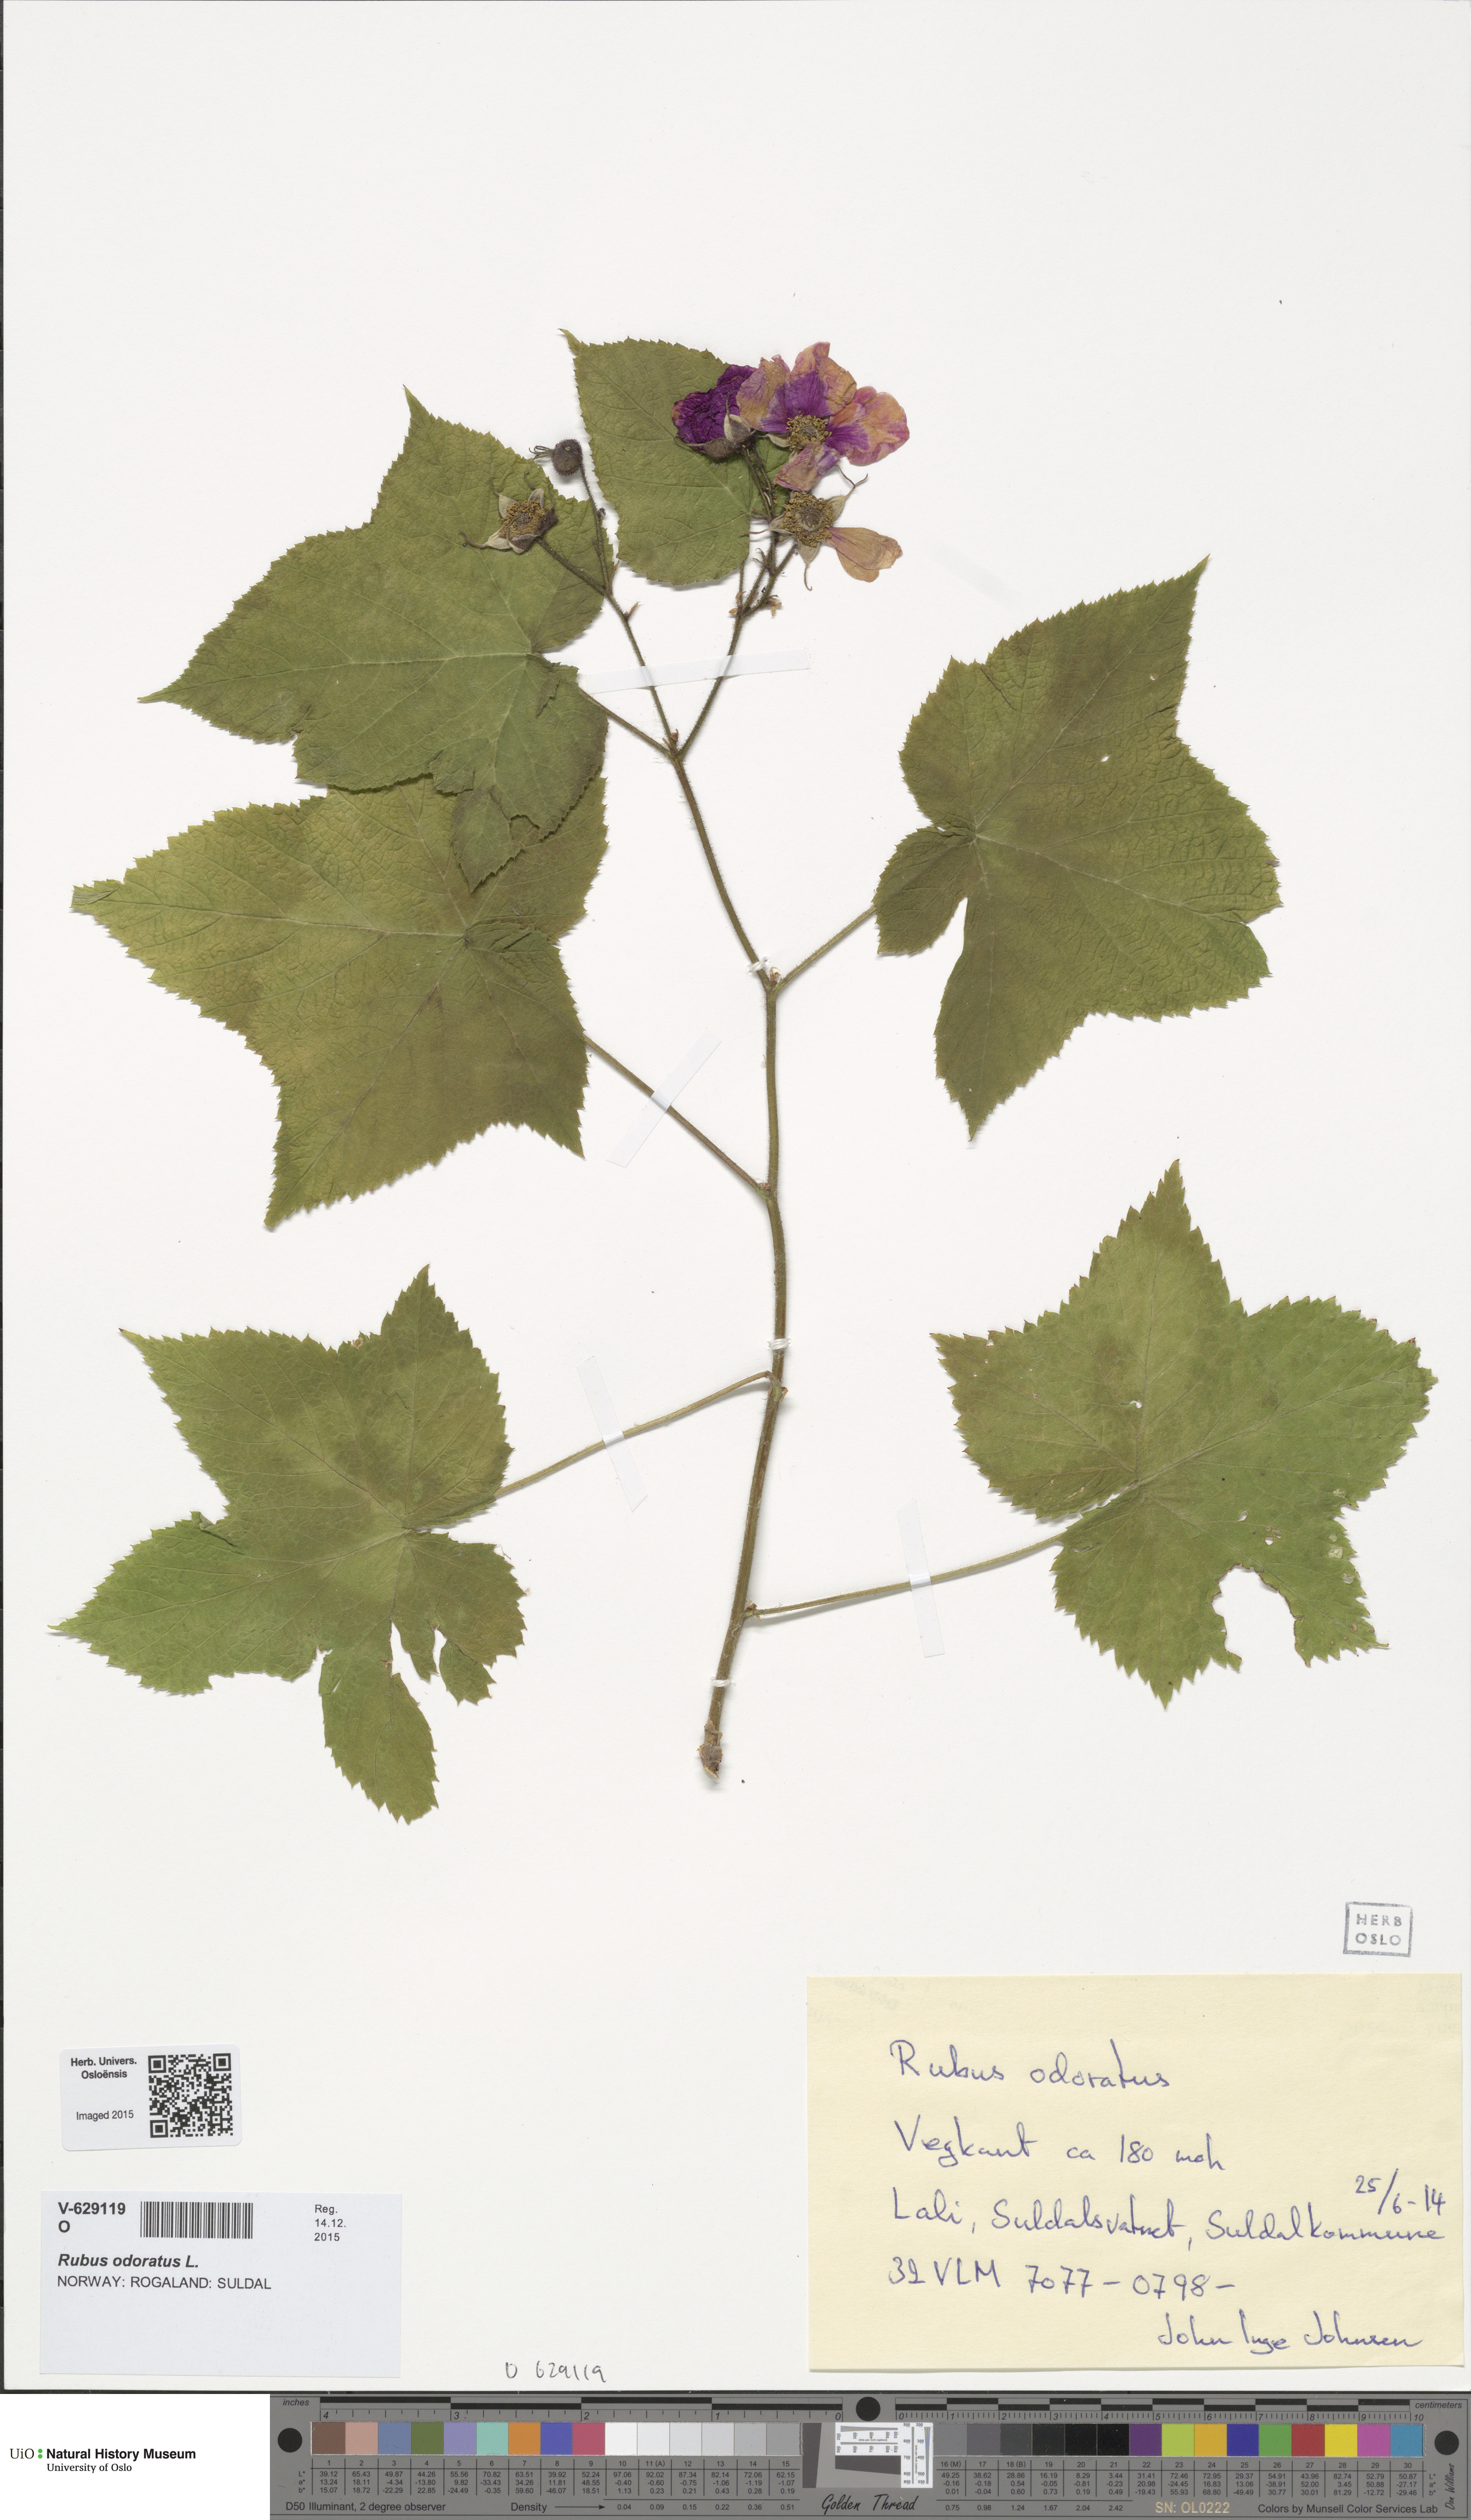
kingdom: Plantae
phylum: Tracheophyta
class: Magnoliopsida
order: Rosales
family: Rosaceae
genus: Rubus
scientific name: Rubus odoratus
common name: Purple-flowered raspberry
